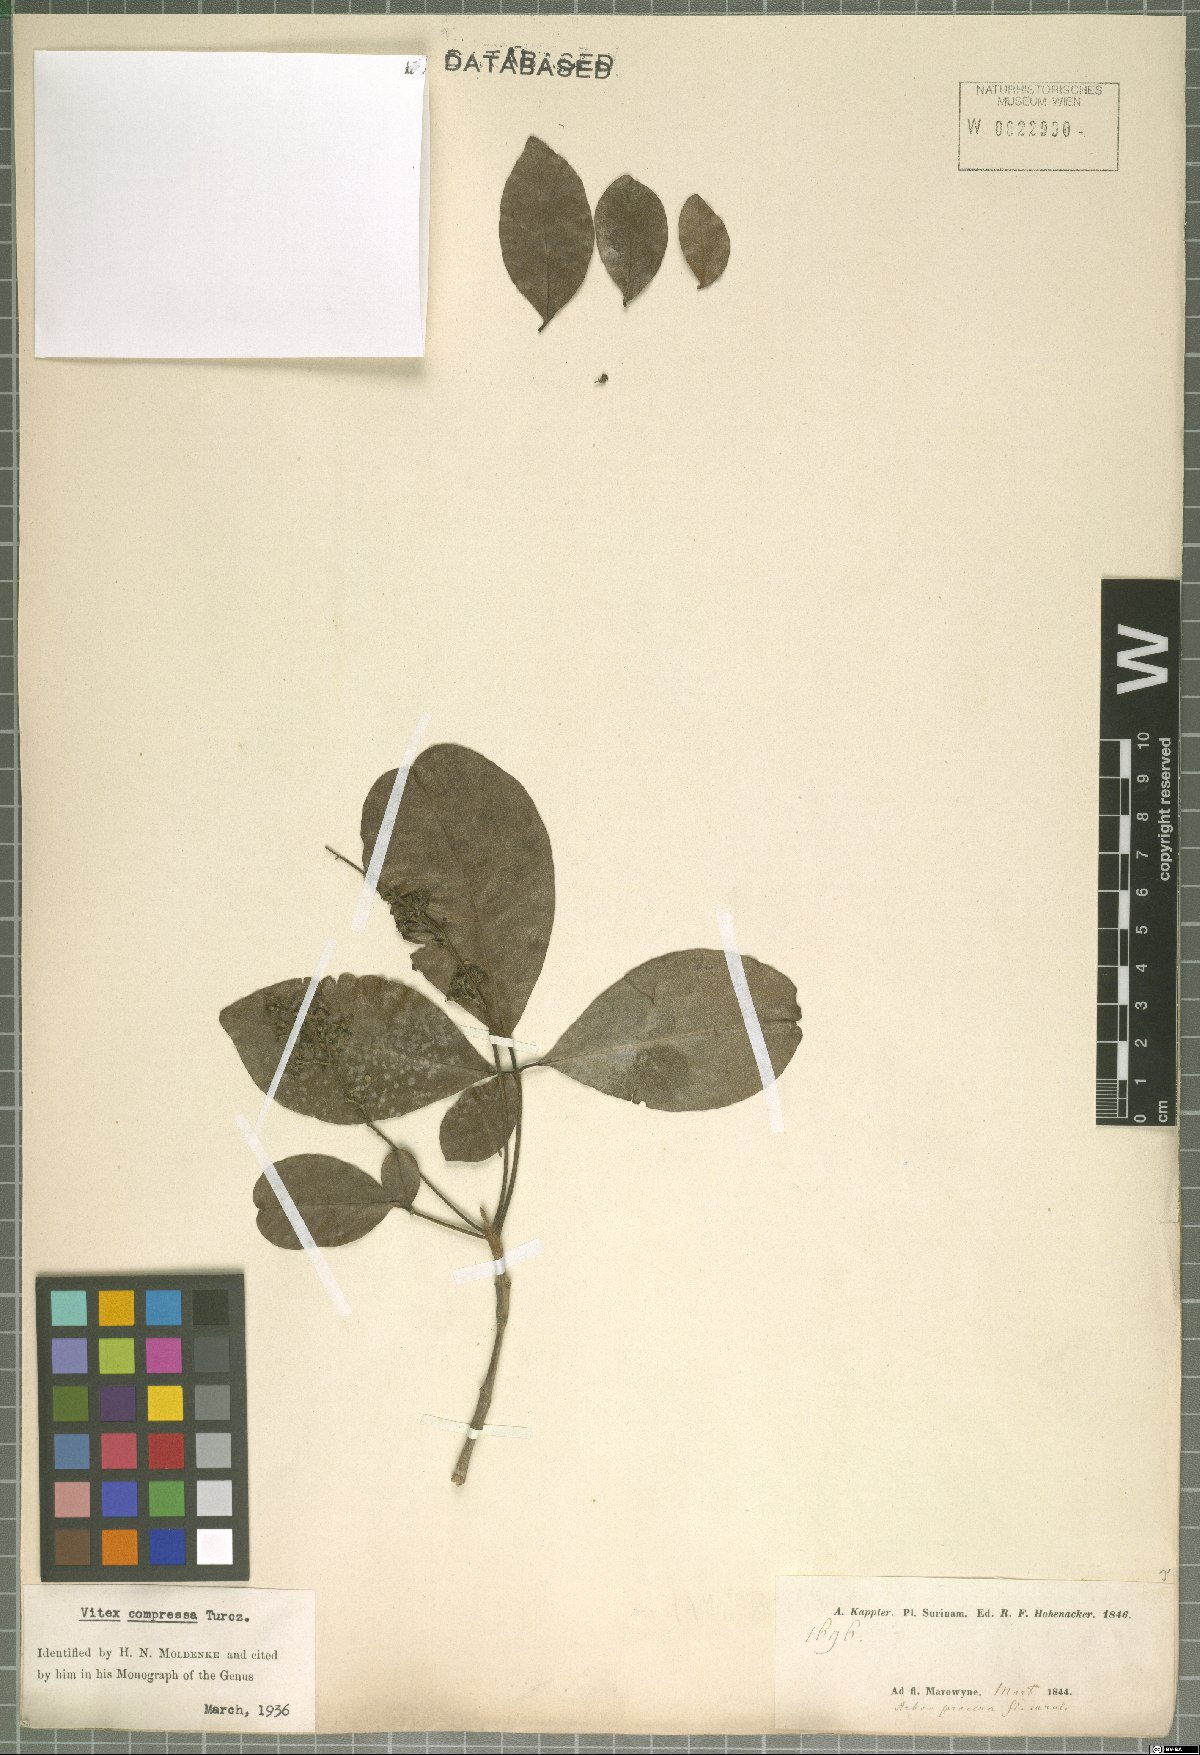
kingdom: Plantae
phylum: Tracheophyta
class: Magnoliopsida
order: Lamiales
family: Lamiaceae
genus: Vitex
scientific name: Vitex compressa
